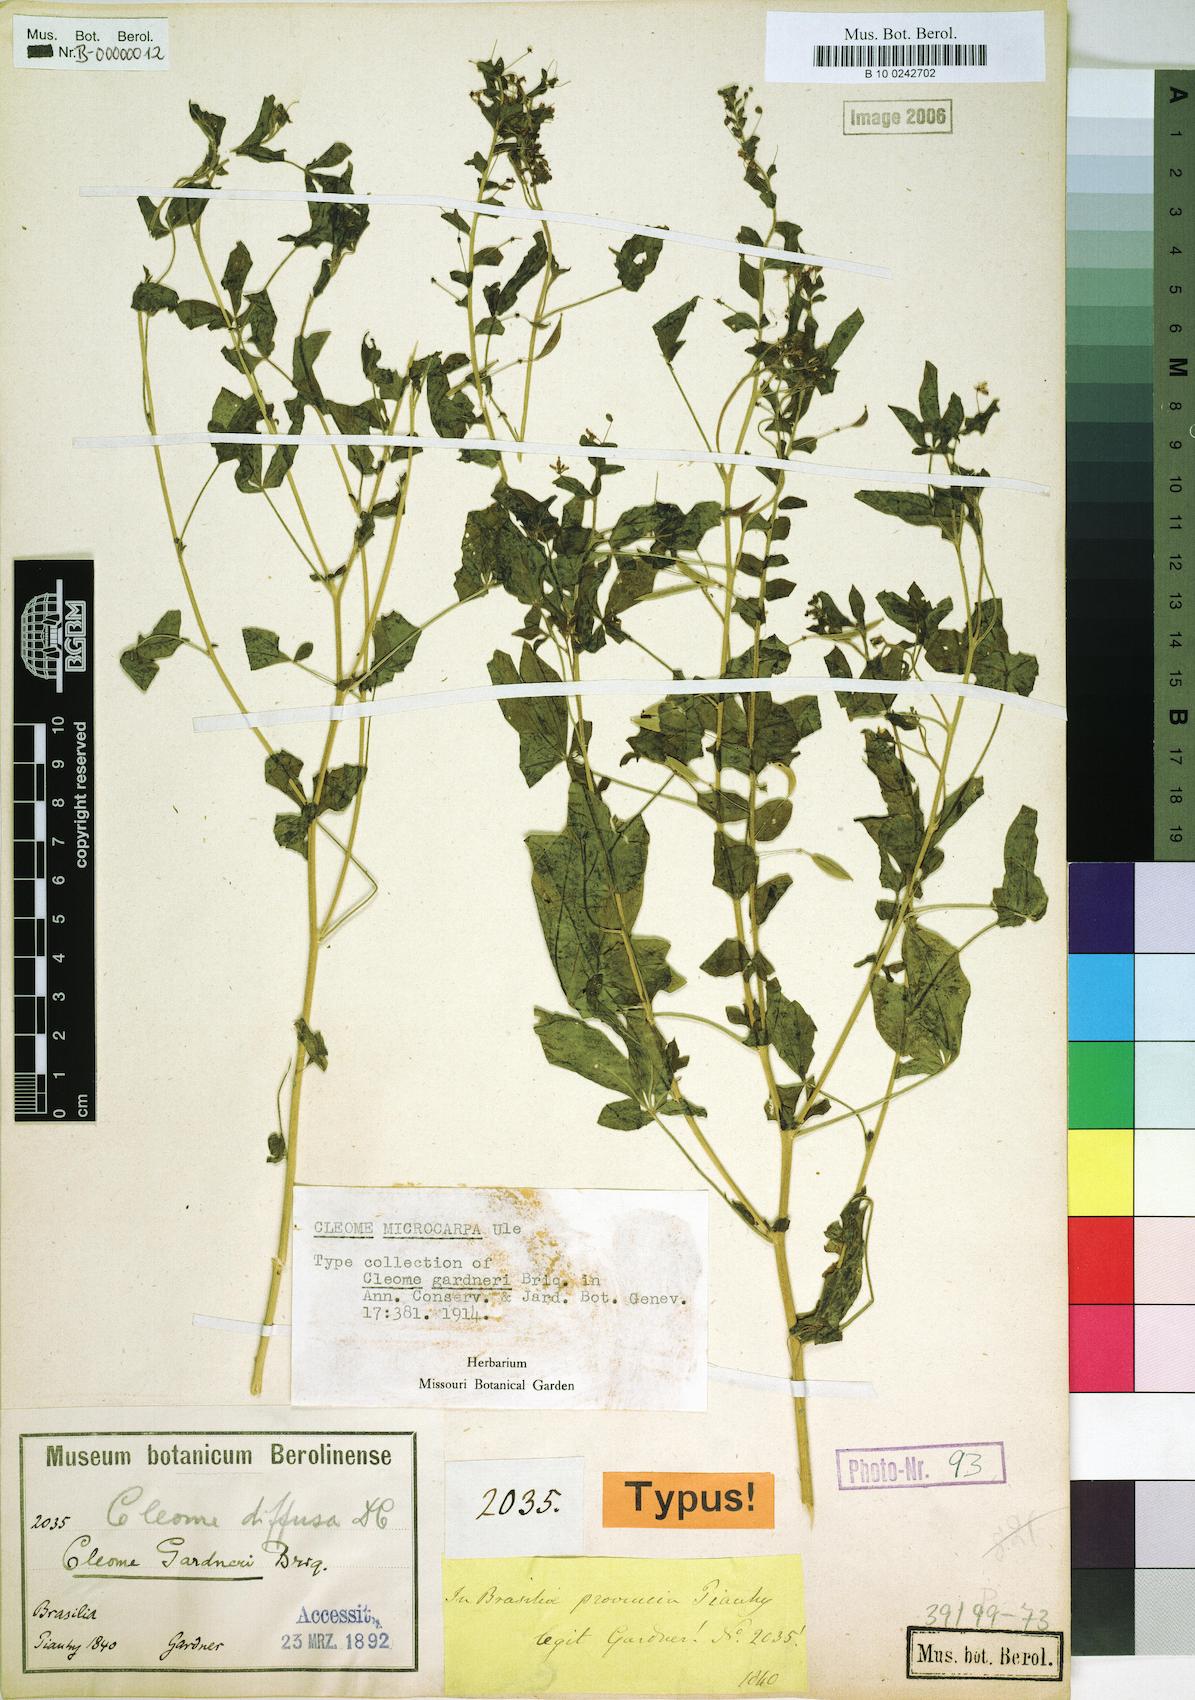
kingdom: Plantae
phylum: Tracheophyta
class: Magnoliopsida
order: Brassicales
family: Cleomaceae
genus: Tarenaya
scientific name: Tarenaya microcarpa
